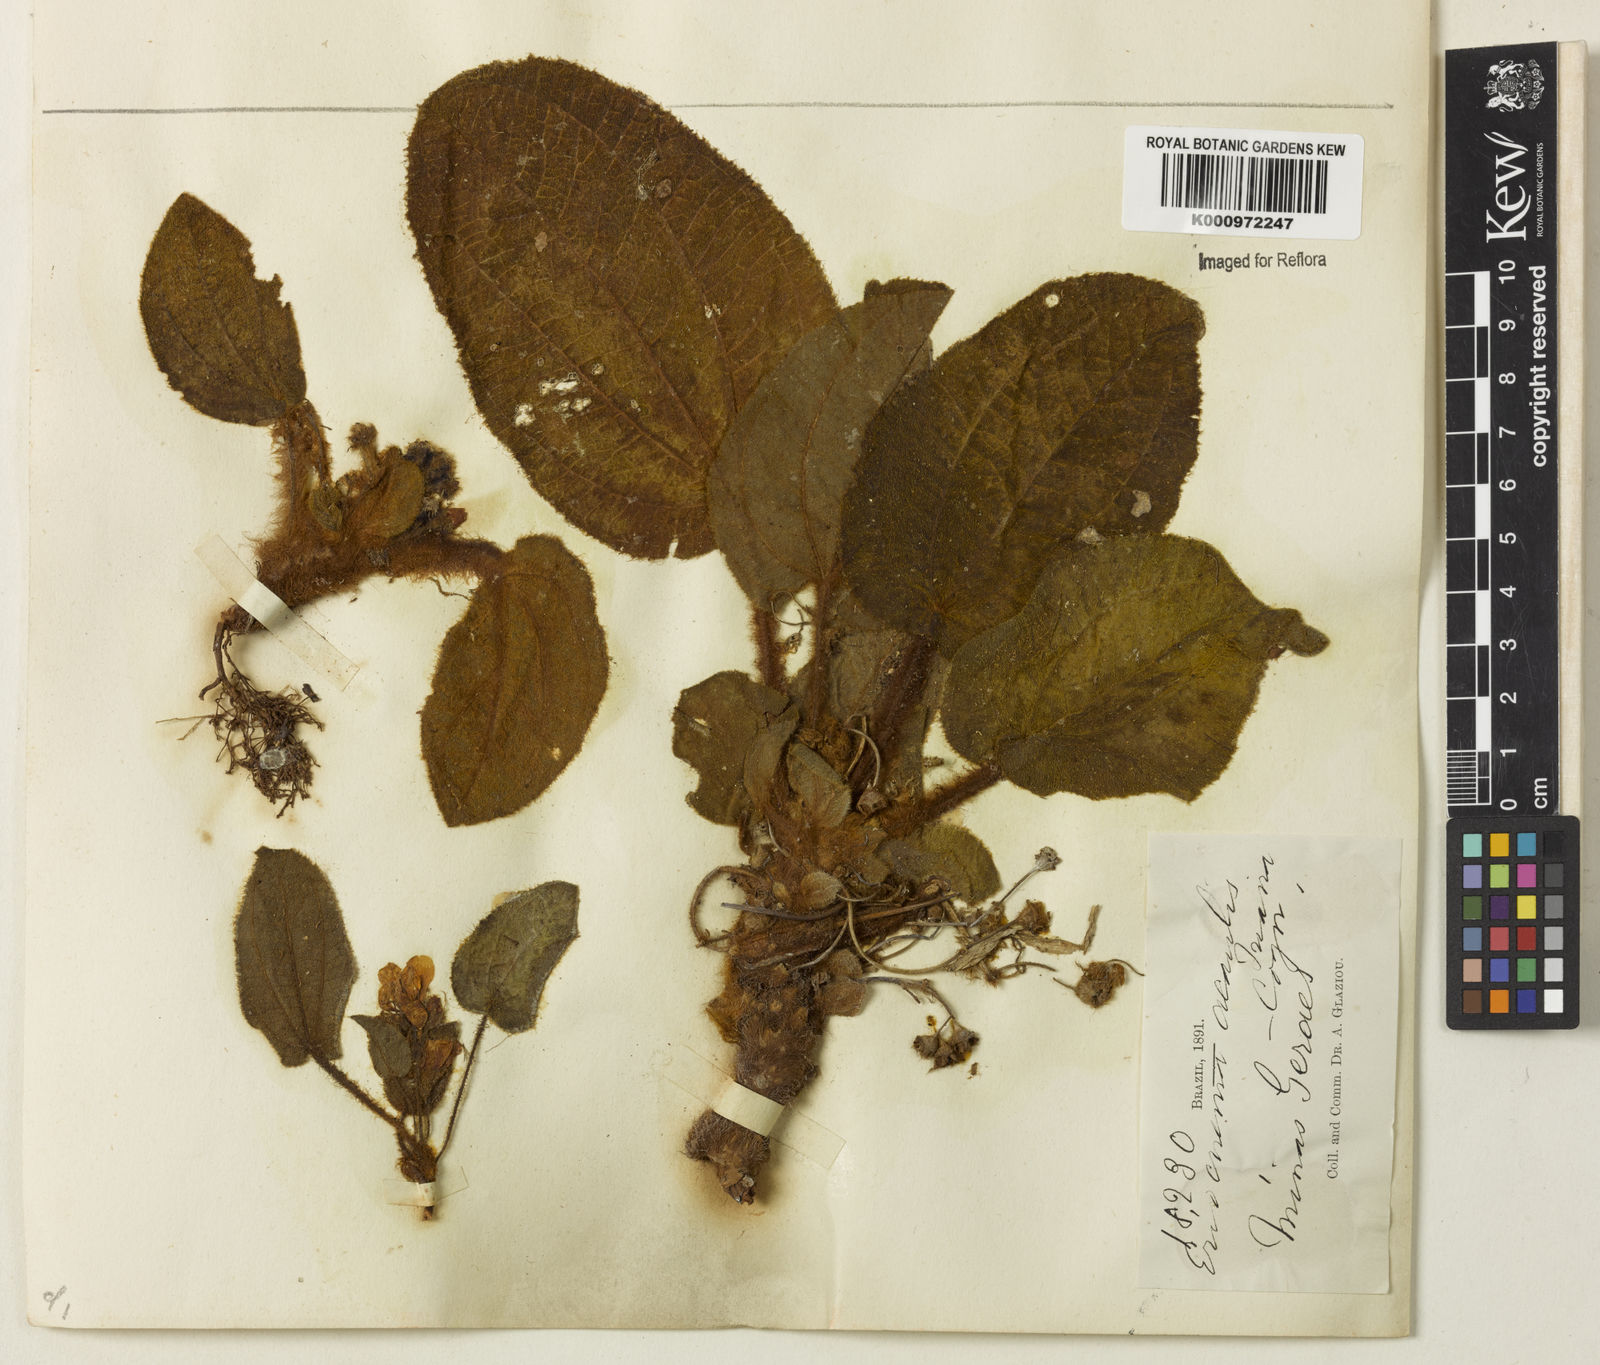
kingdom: Plantae
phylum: Tracheophyta
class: Magnoliopsida
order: Myrtales
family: Melastomataceae
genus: Eriocnema
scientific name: Eriocnema acaulis
